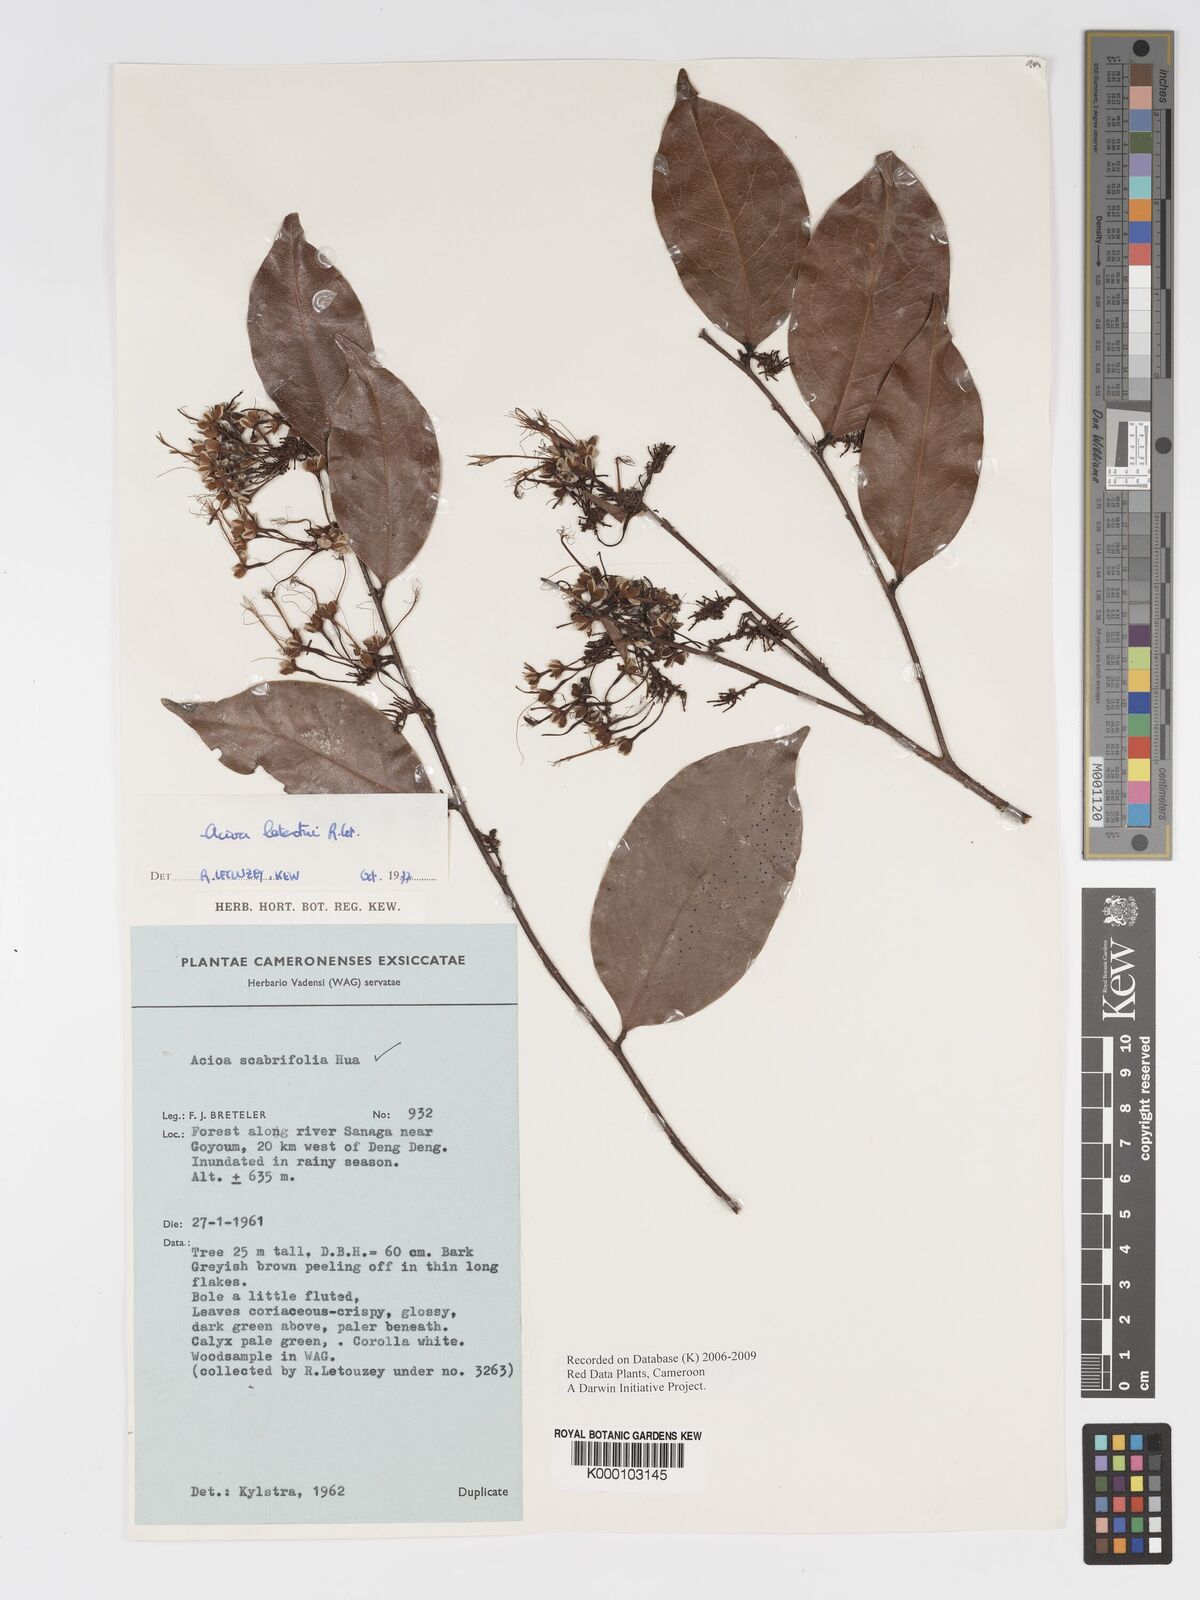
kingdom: Plantae
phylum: Tracheophyta
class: Magnoliopsida
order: Malpighiales
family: Chrysobalanaceae
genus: Dactyladenia
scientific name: Dactyladenia letestui
